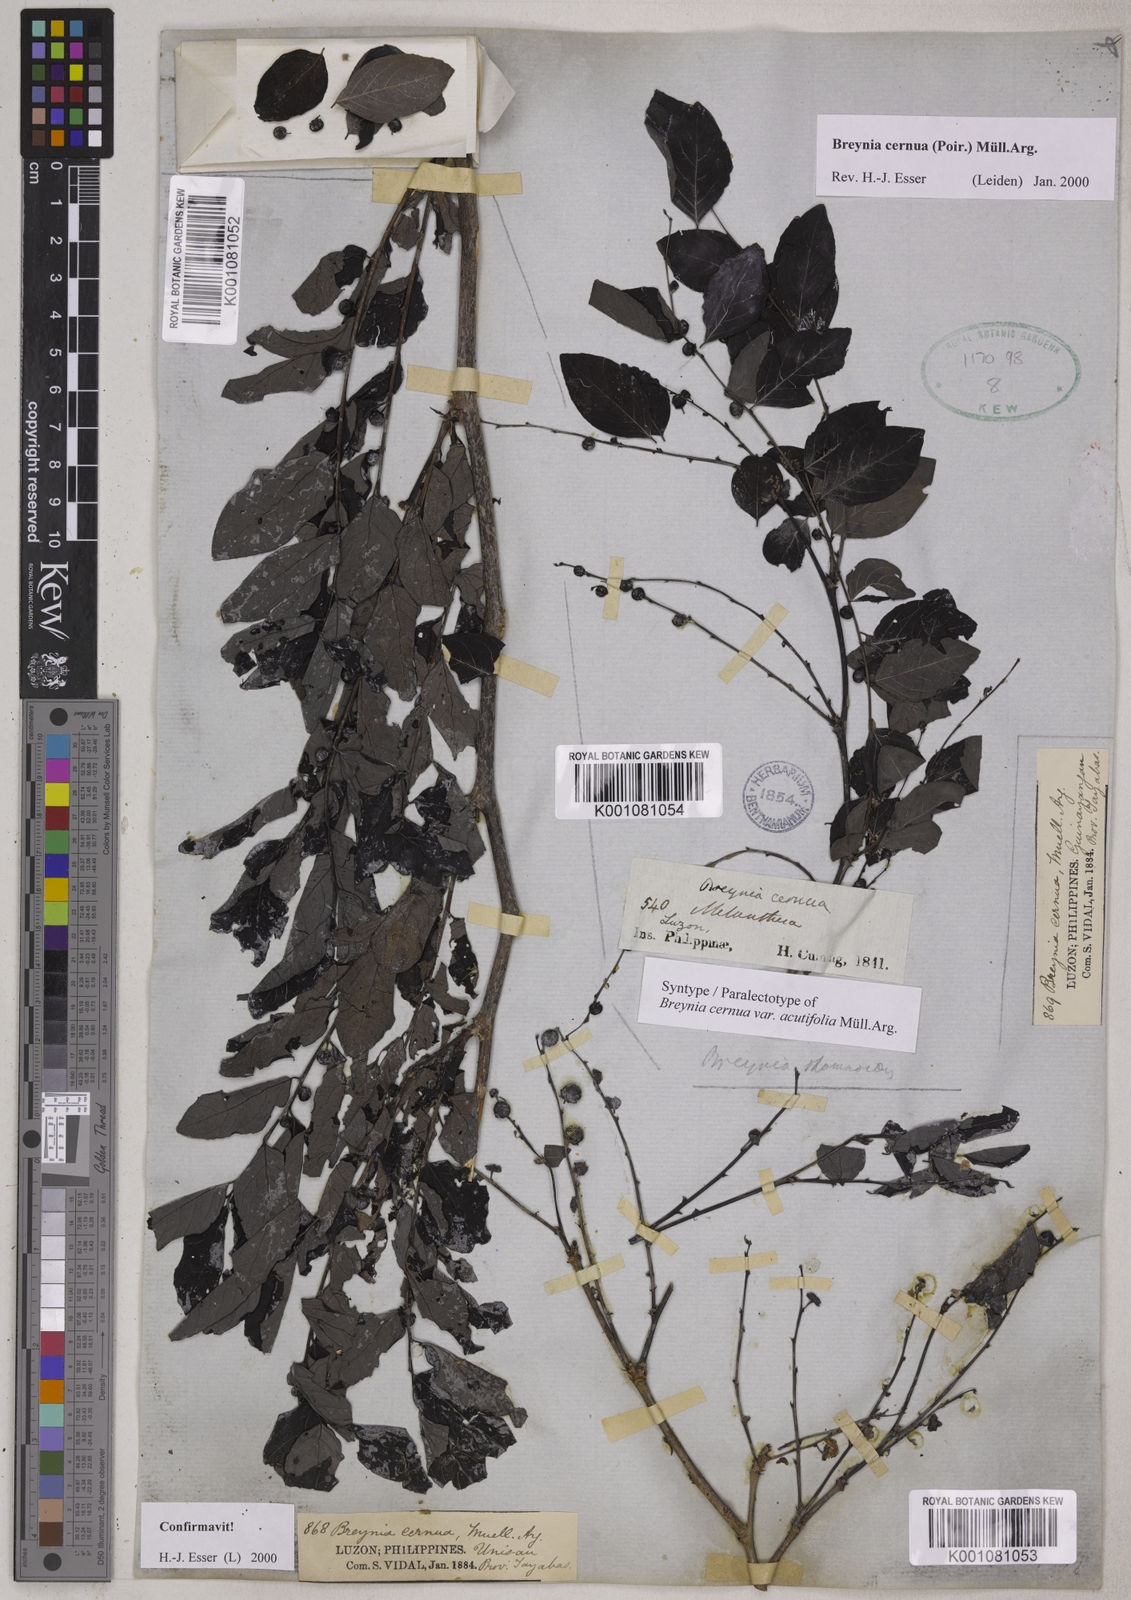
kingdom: Plantae
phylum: Tracheophyta
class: Magnoliopsida
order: Malpighiales
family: Phyllanthaceae
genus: Breynia
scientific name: Breynia
